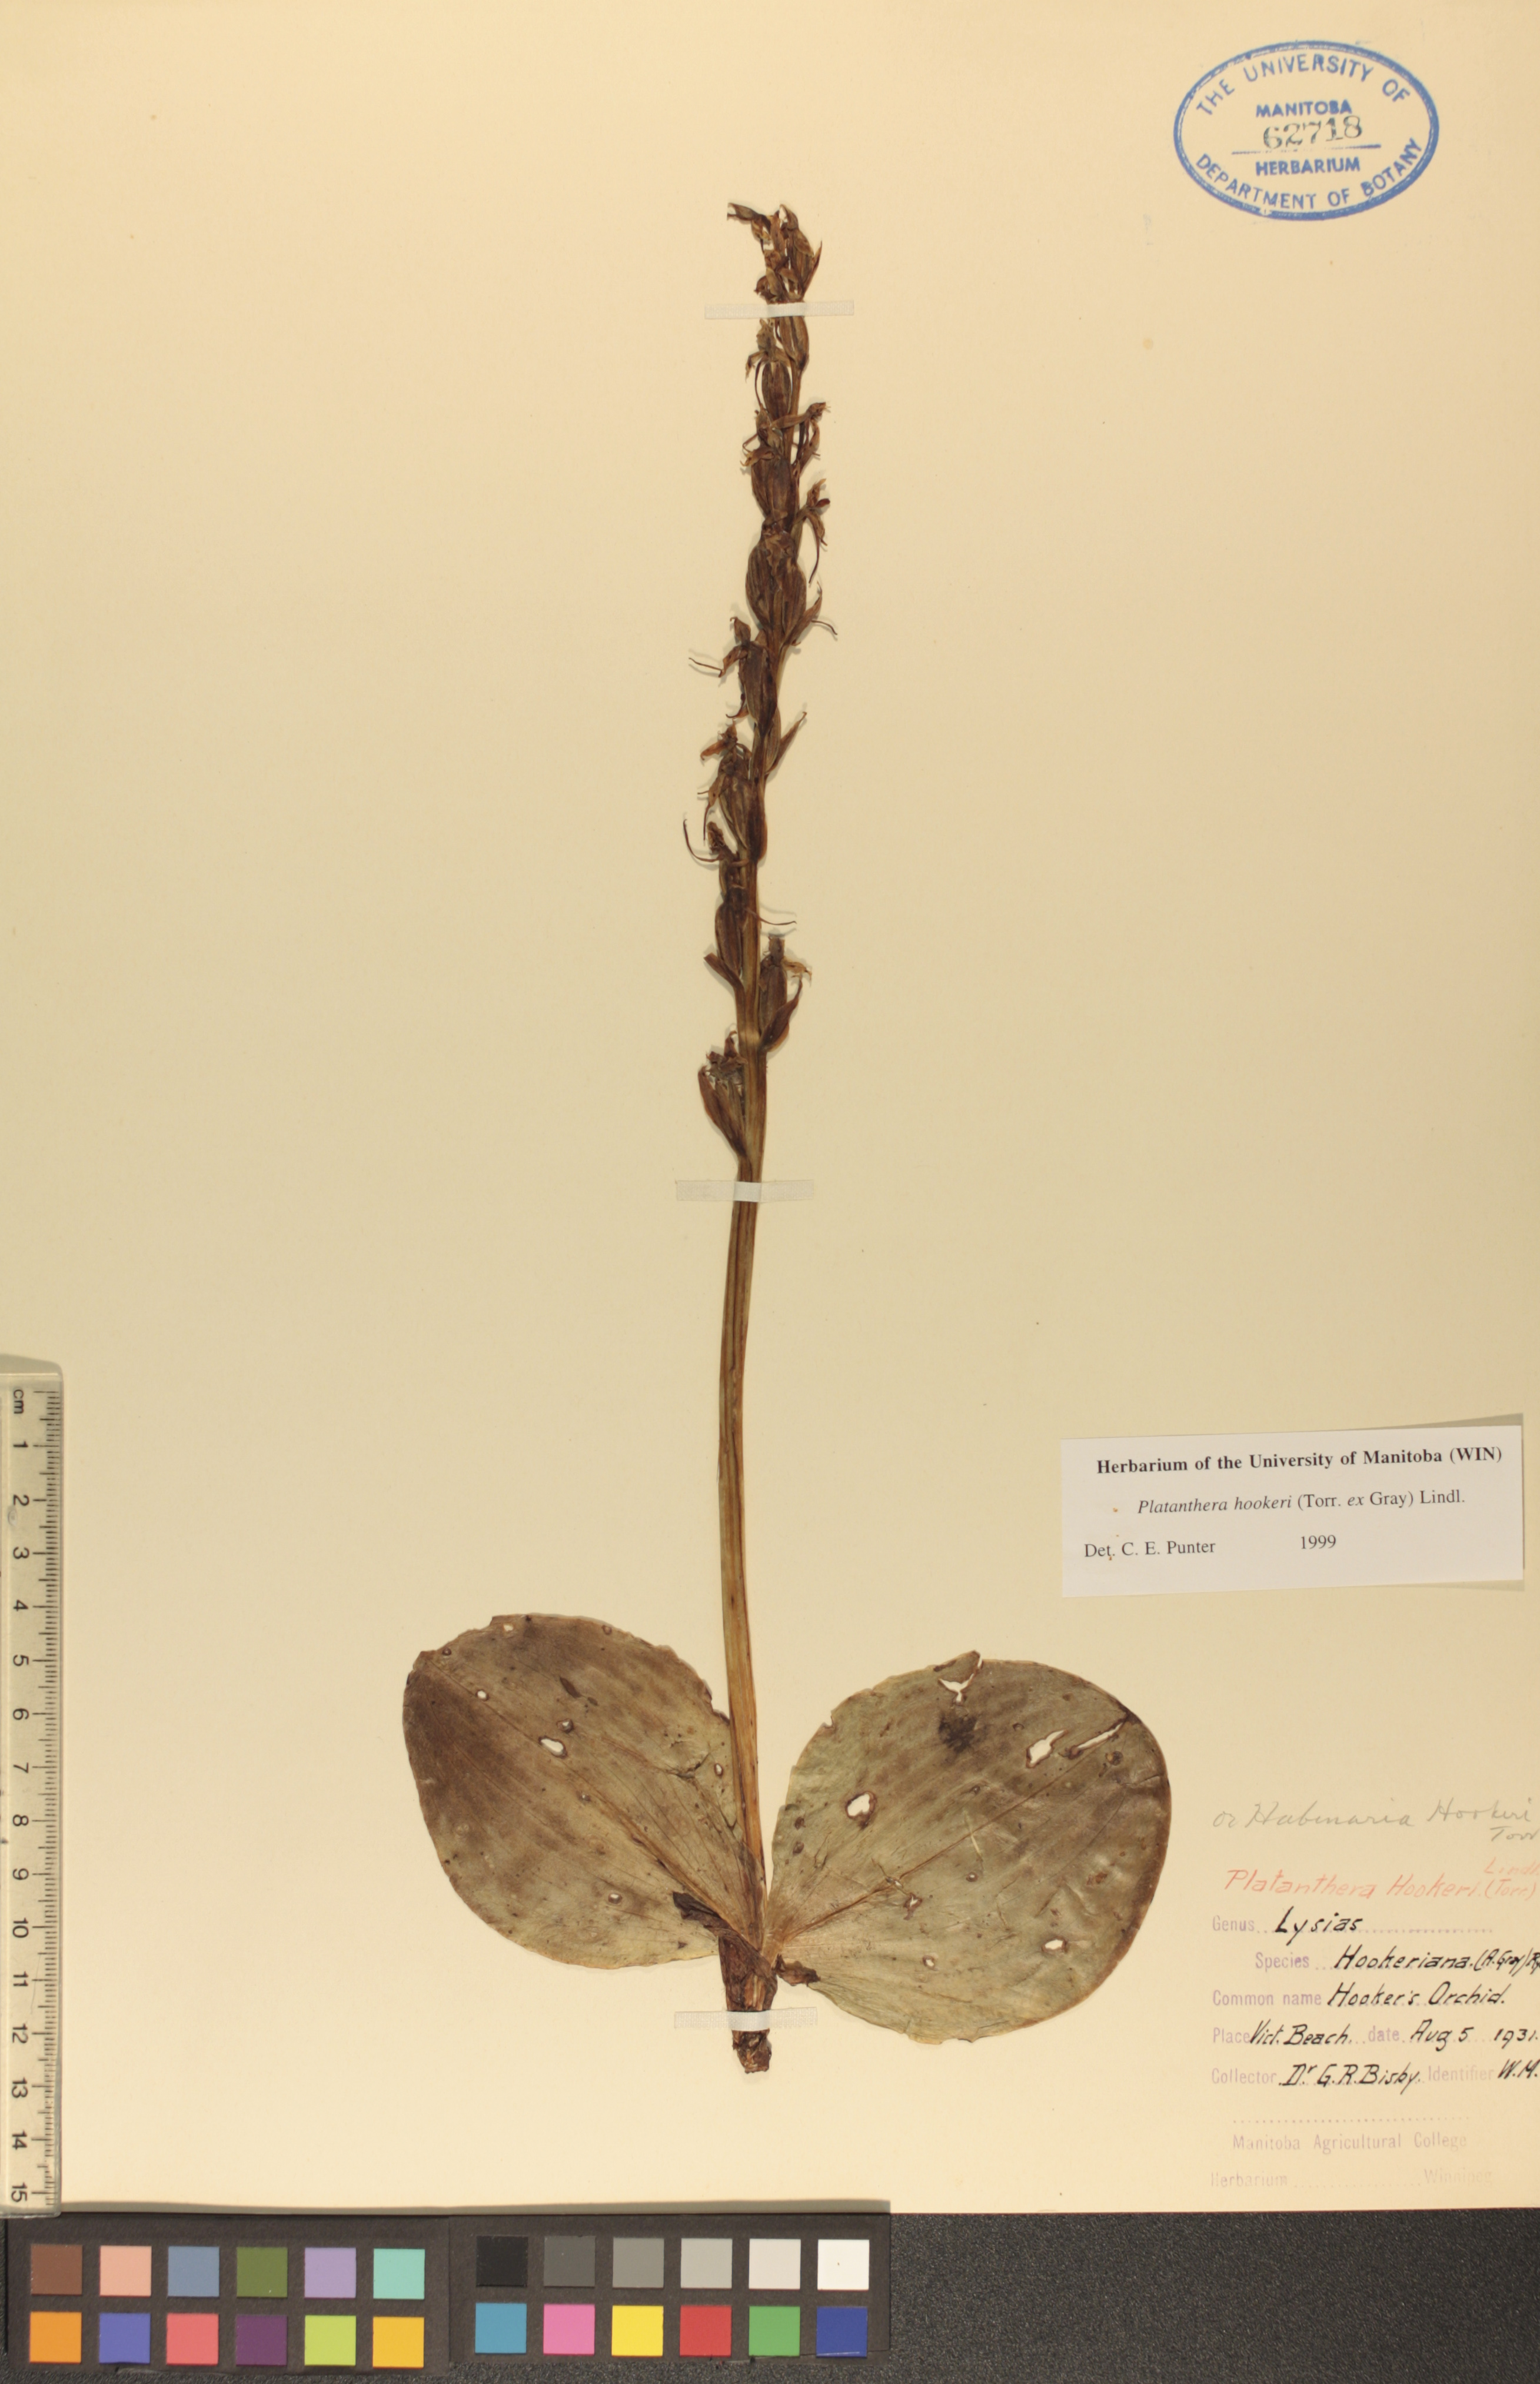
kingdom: Plantae
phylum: Tracheophyta
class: Liliopsida
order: Asparagales
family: Orchidaceae
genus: Platanthera
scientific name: Platanthera hookeri
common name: Hooker's orchid
